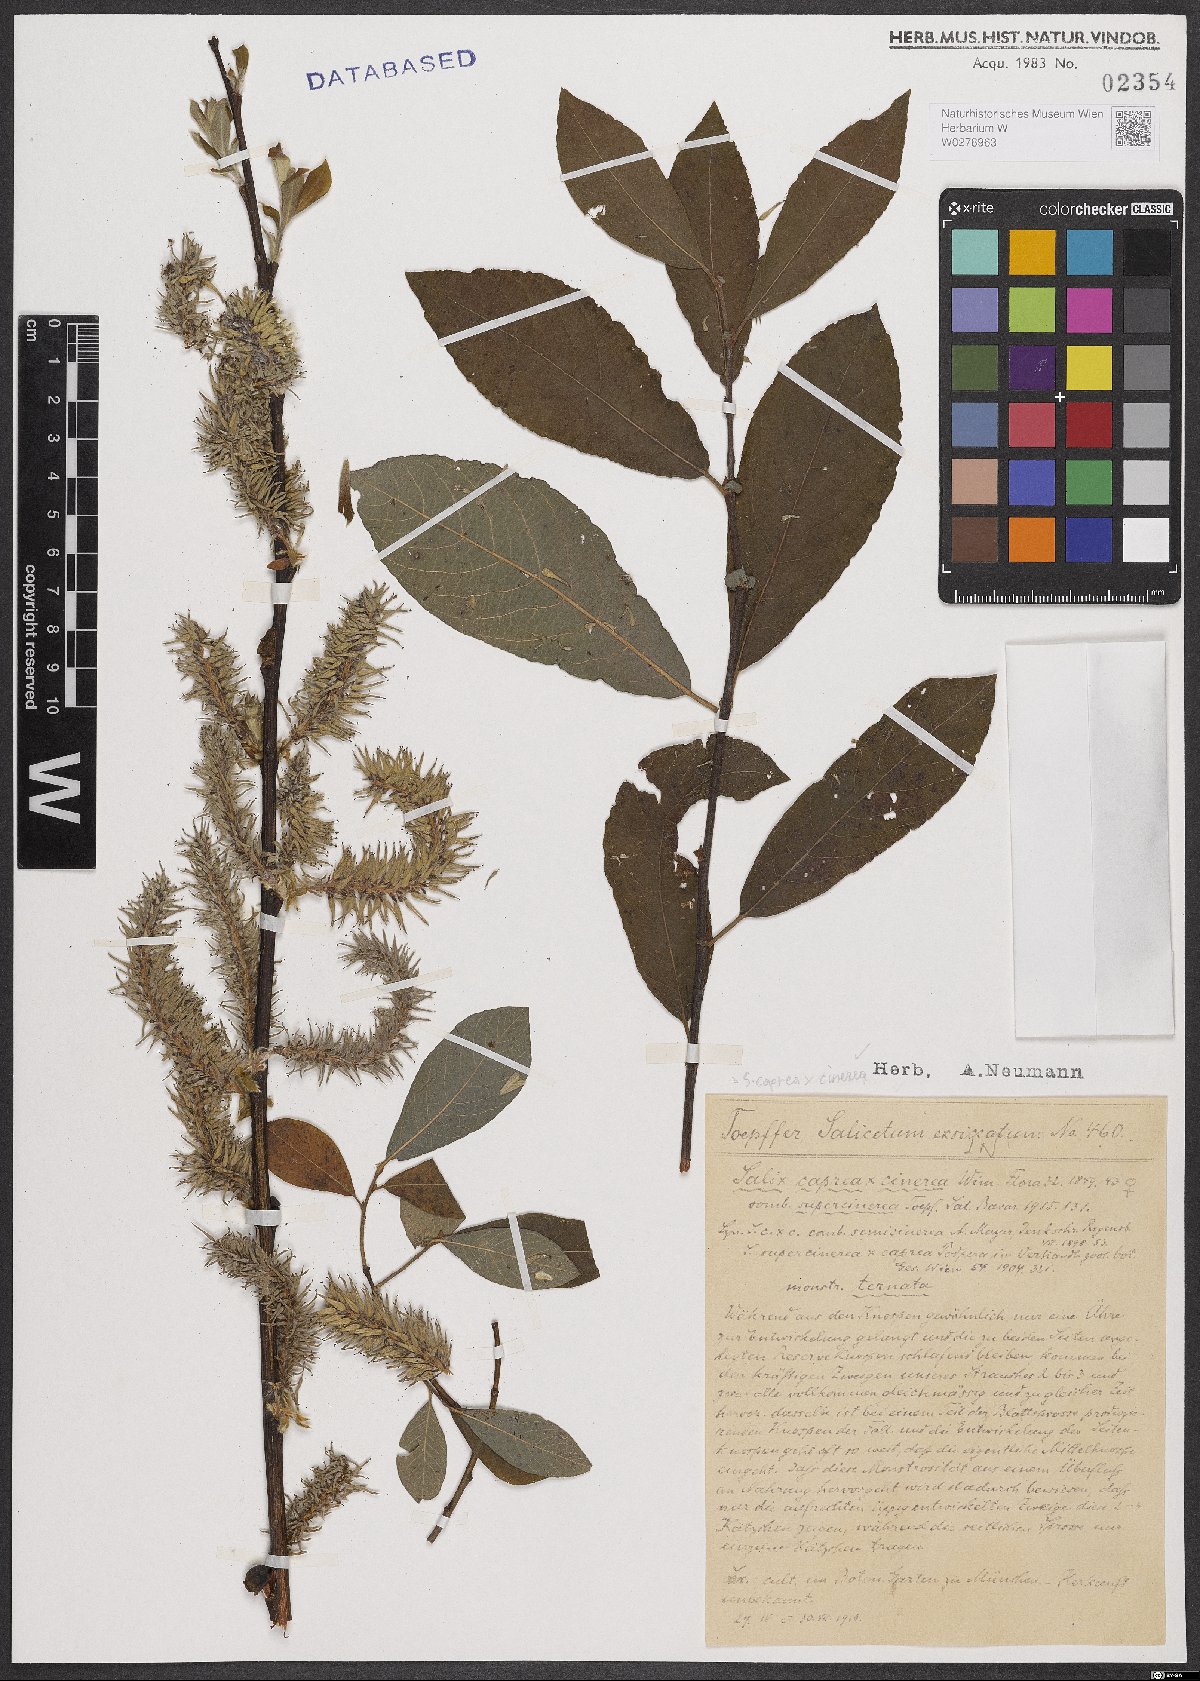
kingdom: Plantae
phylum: Tracheophyta
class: Magnoliopsida
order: Malpighiales
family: Salicaceae
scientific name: Salicaceae
